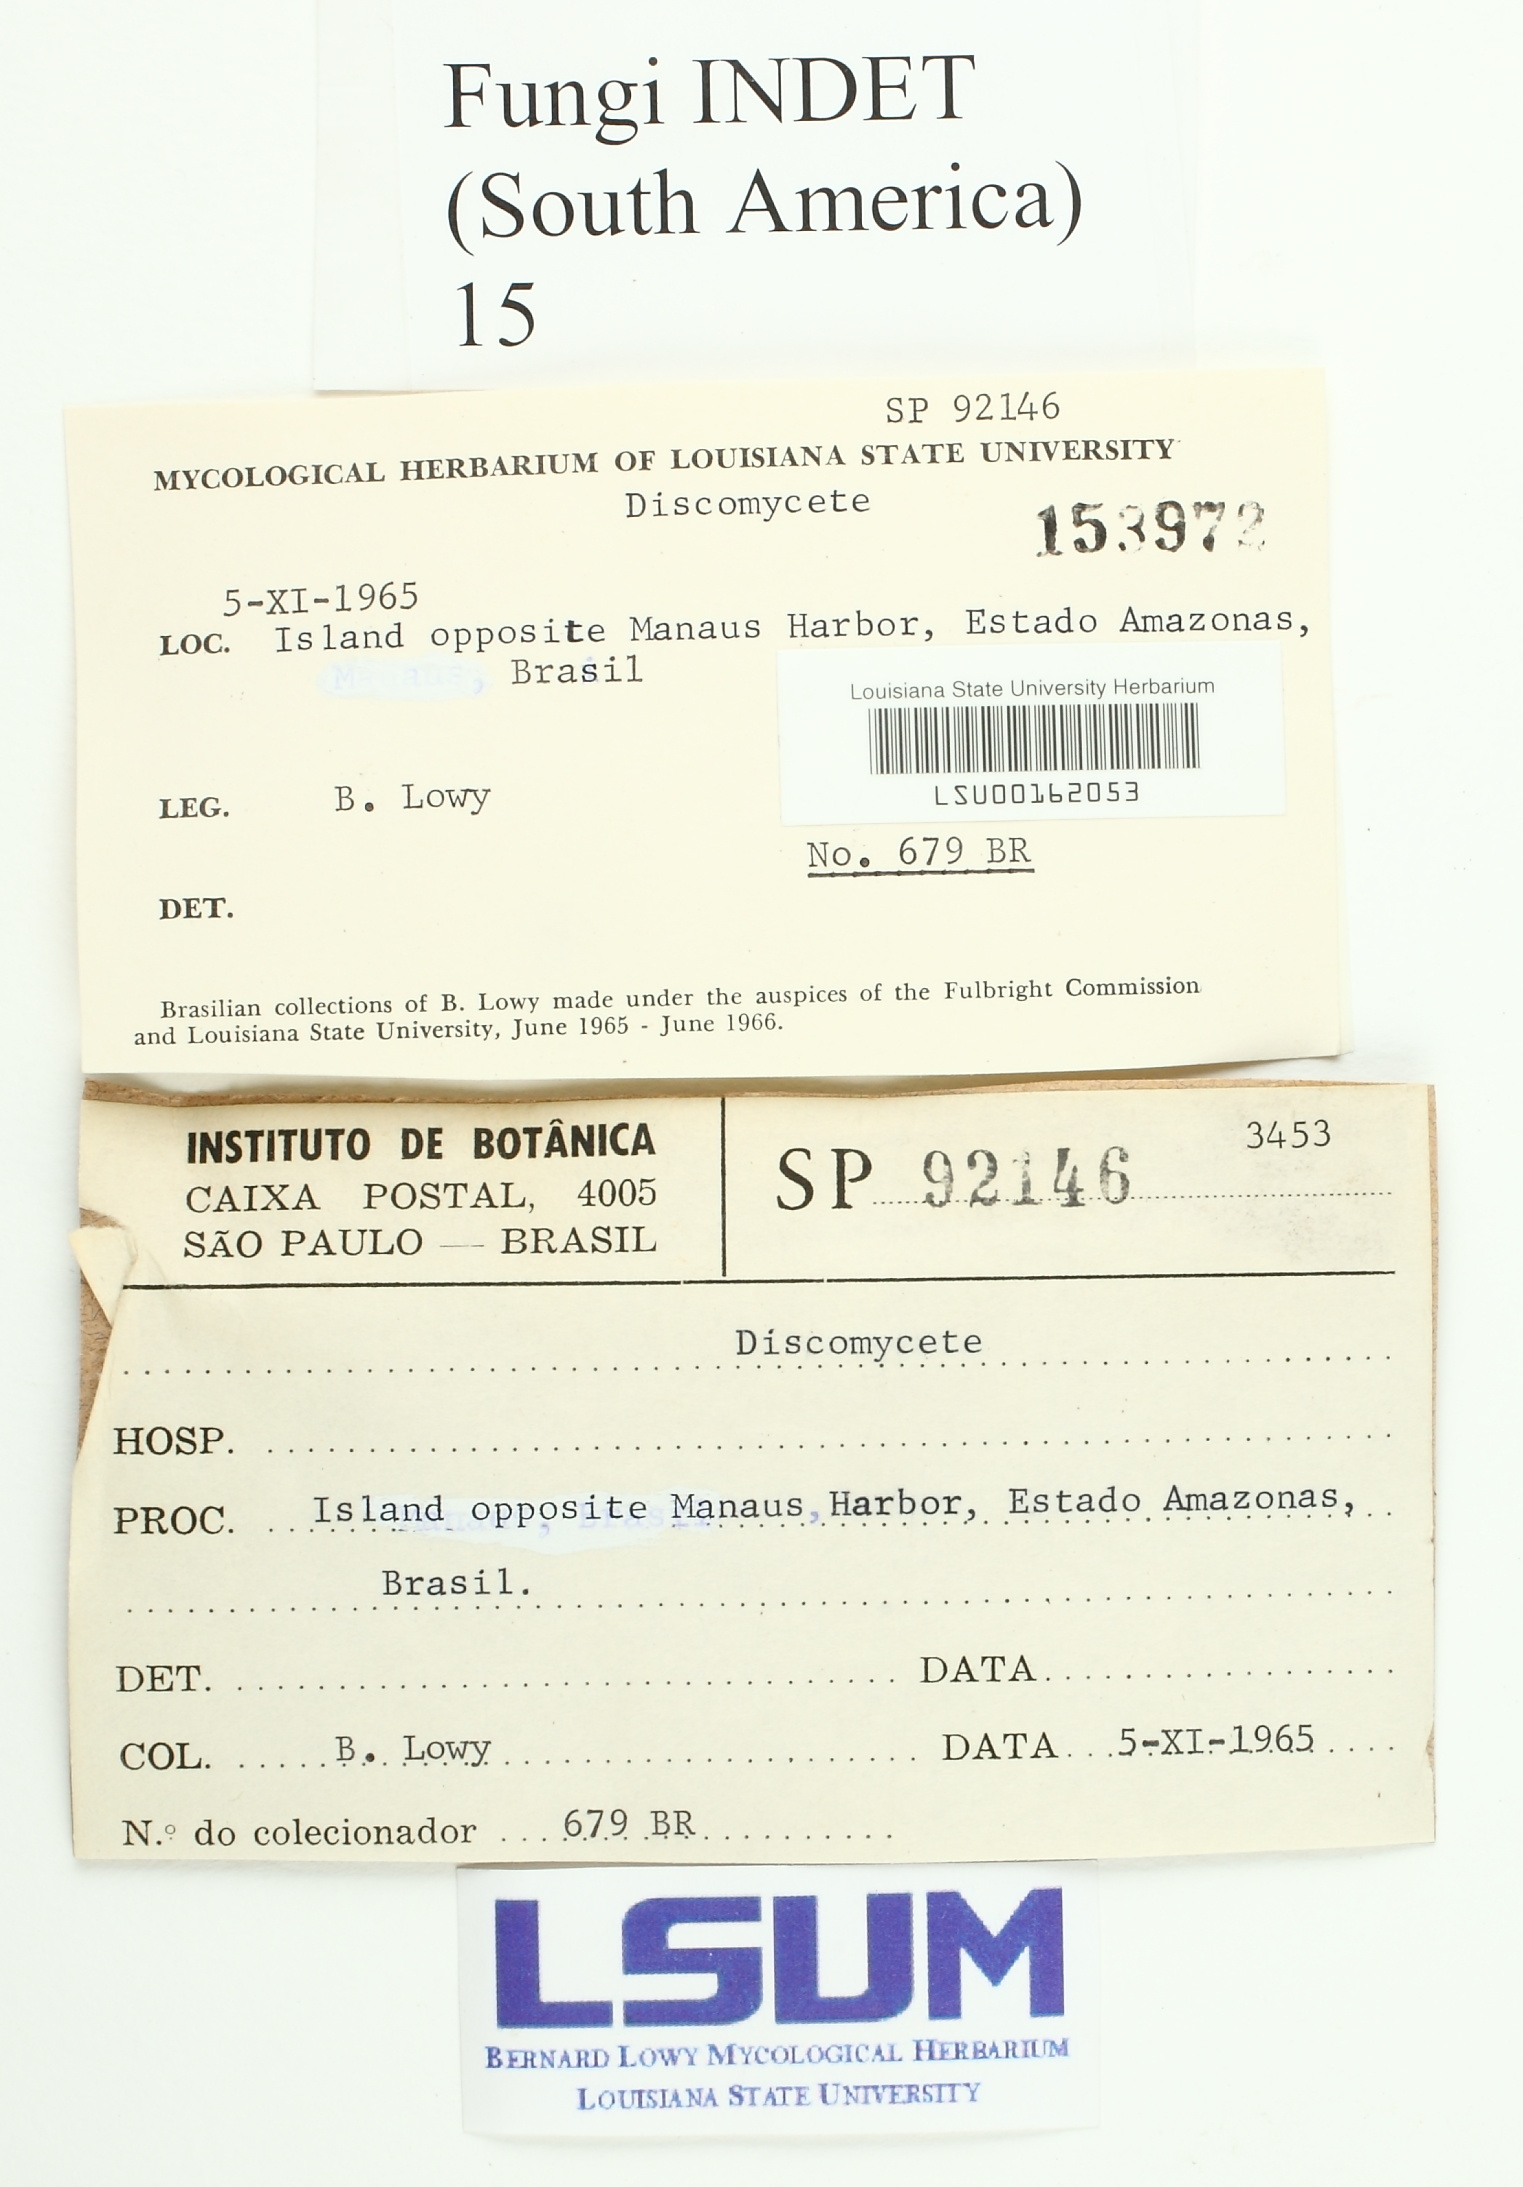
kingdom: Fungi
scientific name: Fungi
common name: Fungi
